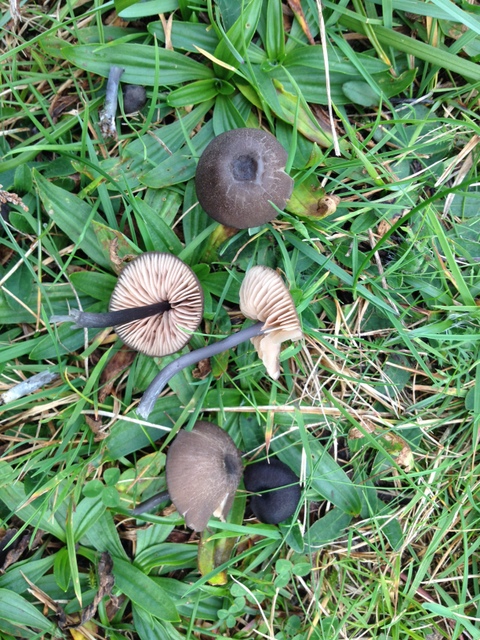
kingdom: Fungi
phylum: Basidiomycota
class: Agaricomycetes
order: Agaricales
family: Entolomataceae
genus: Entoloma
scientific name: Entoloma atrocoeruleum
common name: sortblå rødblad
